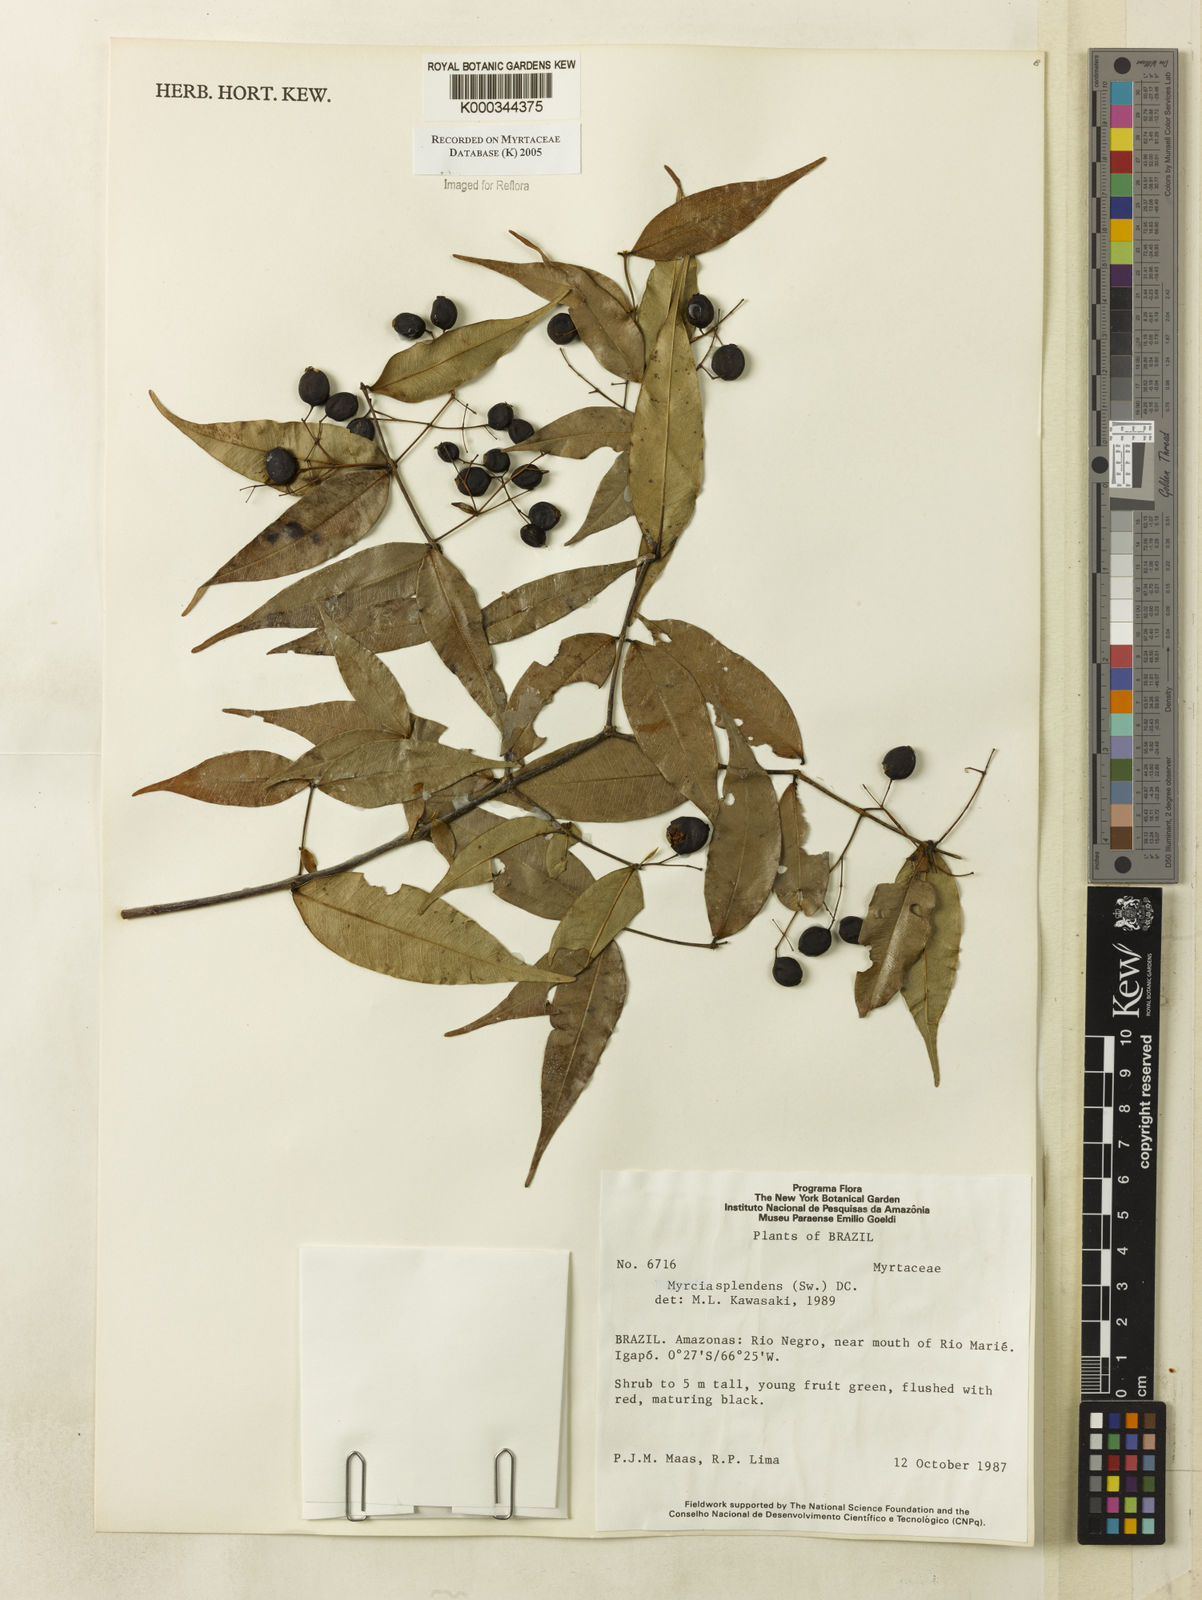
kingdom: Plantae
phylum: Tracheophyta
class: Magnoliopsida
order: Myrtales
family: Myrtaceae
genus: Myrcia
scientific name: Myrcia splendens
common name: Surinam cherry
